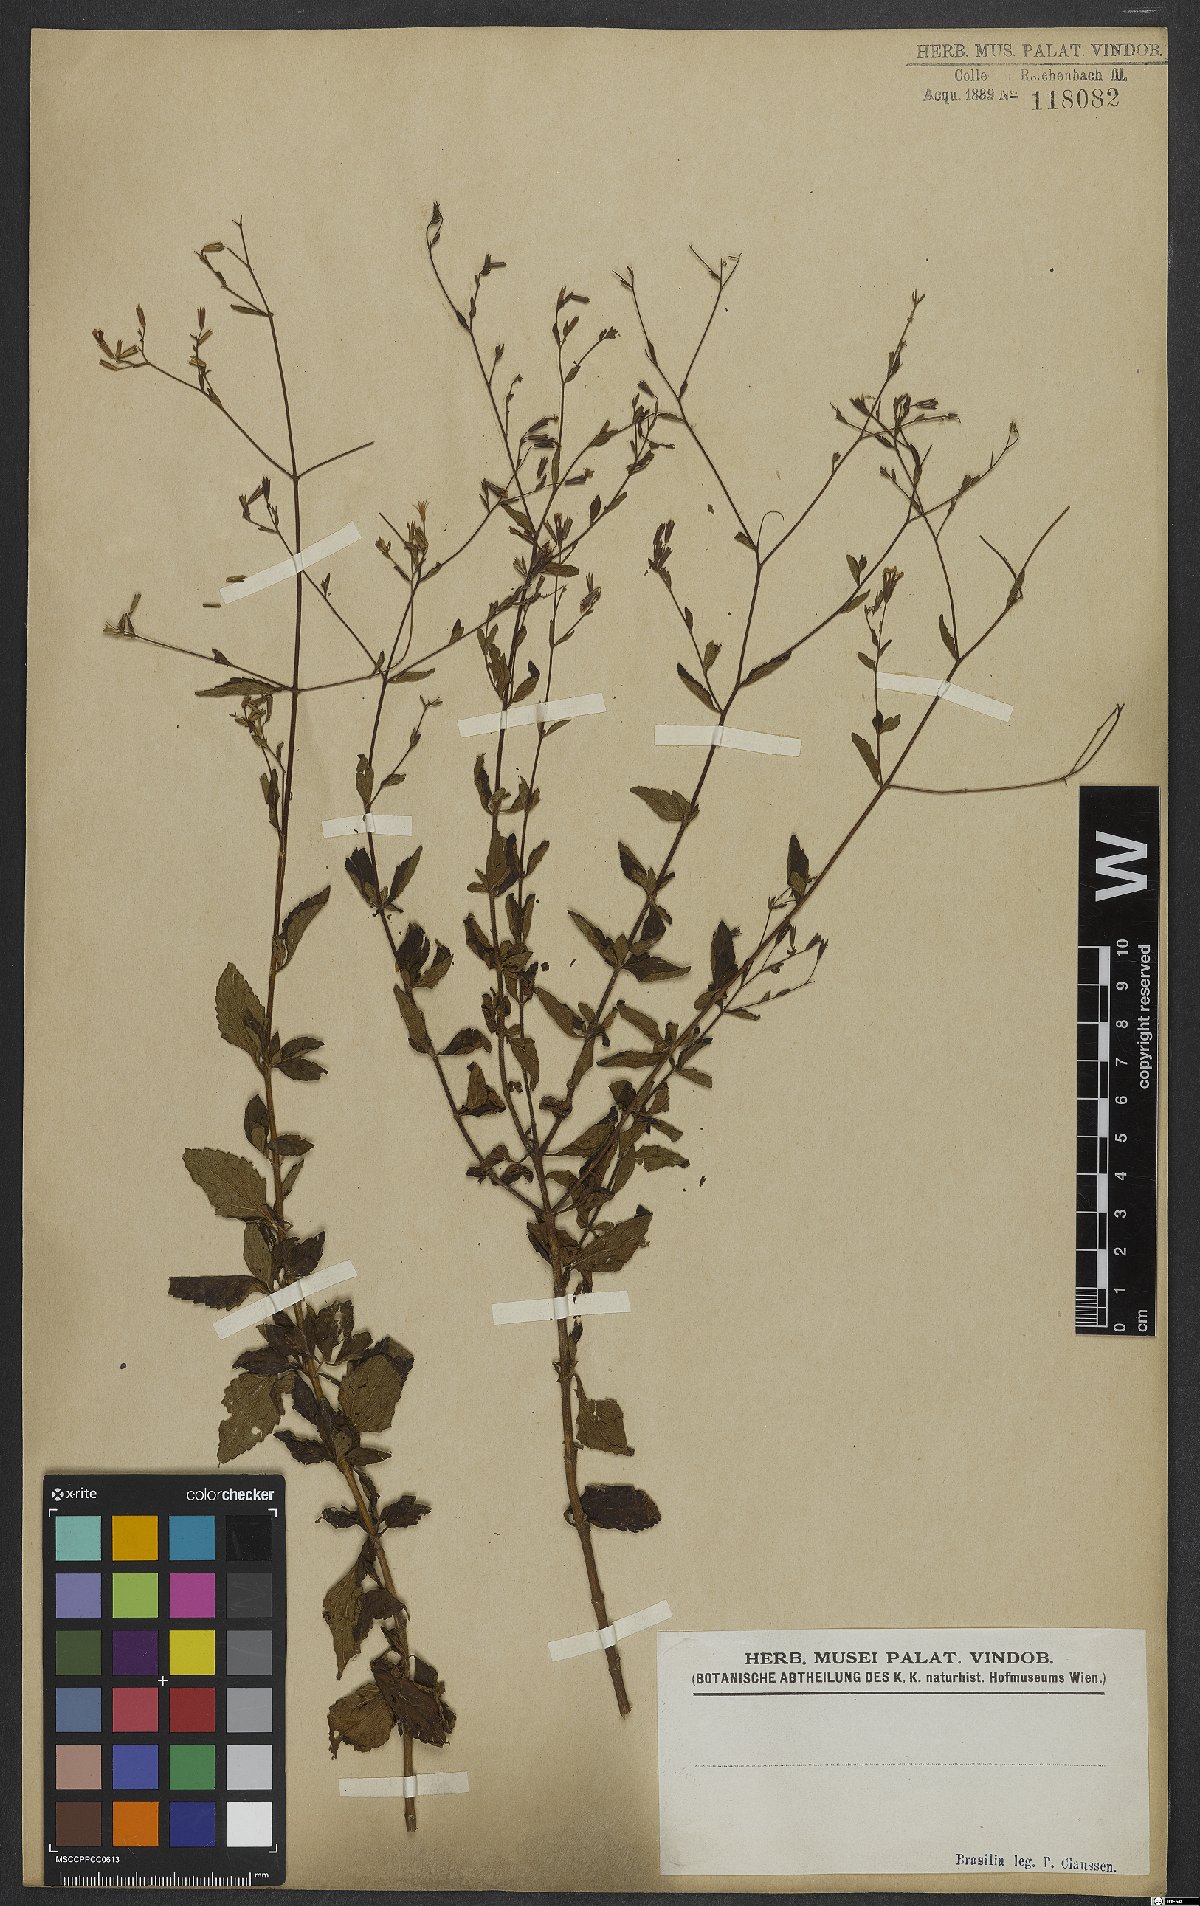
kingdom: Plantae
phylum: Tracheophyta
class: Magnoliopsida
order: Asterales
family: Asteraceae
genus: Porophyllum
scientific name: Porophyllum
